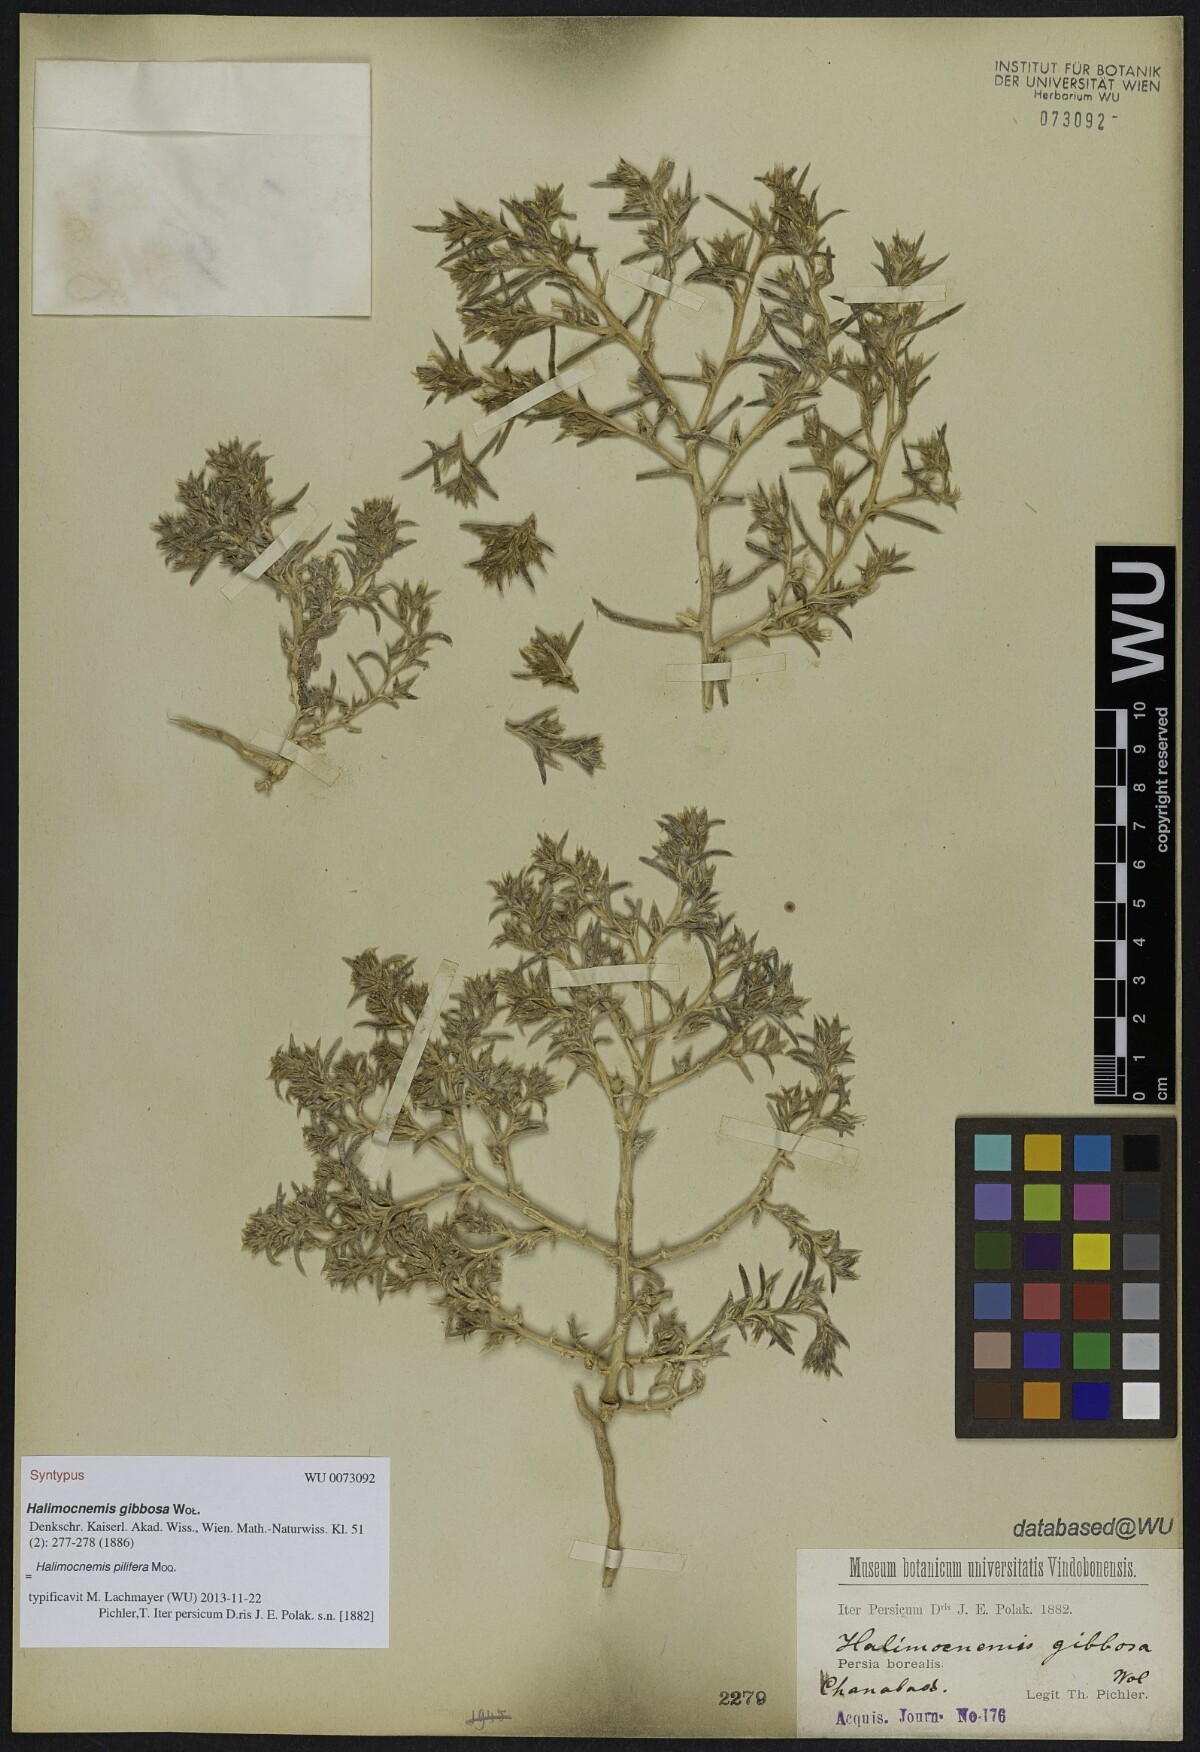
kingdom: Plantae
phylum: Tracheophyta
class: Magnoliopsida
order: Caryophyllales
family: Amaranthaceae
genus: Halimocnemis
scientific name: Halimocnemis pilifera
